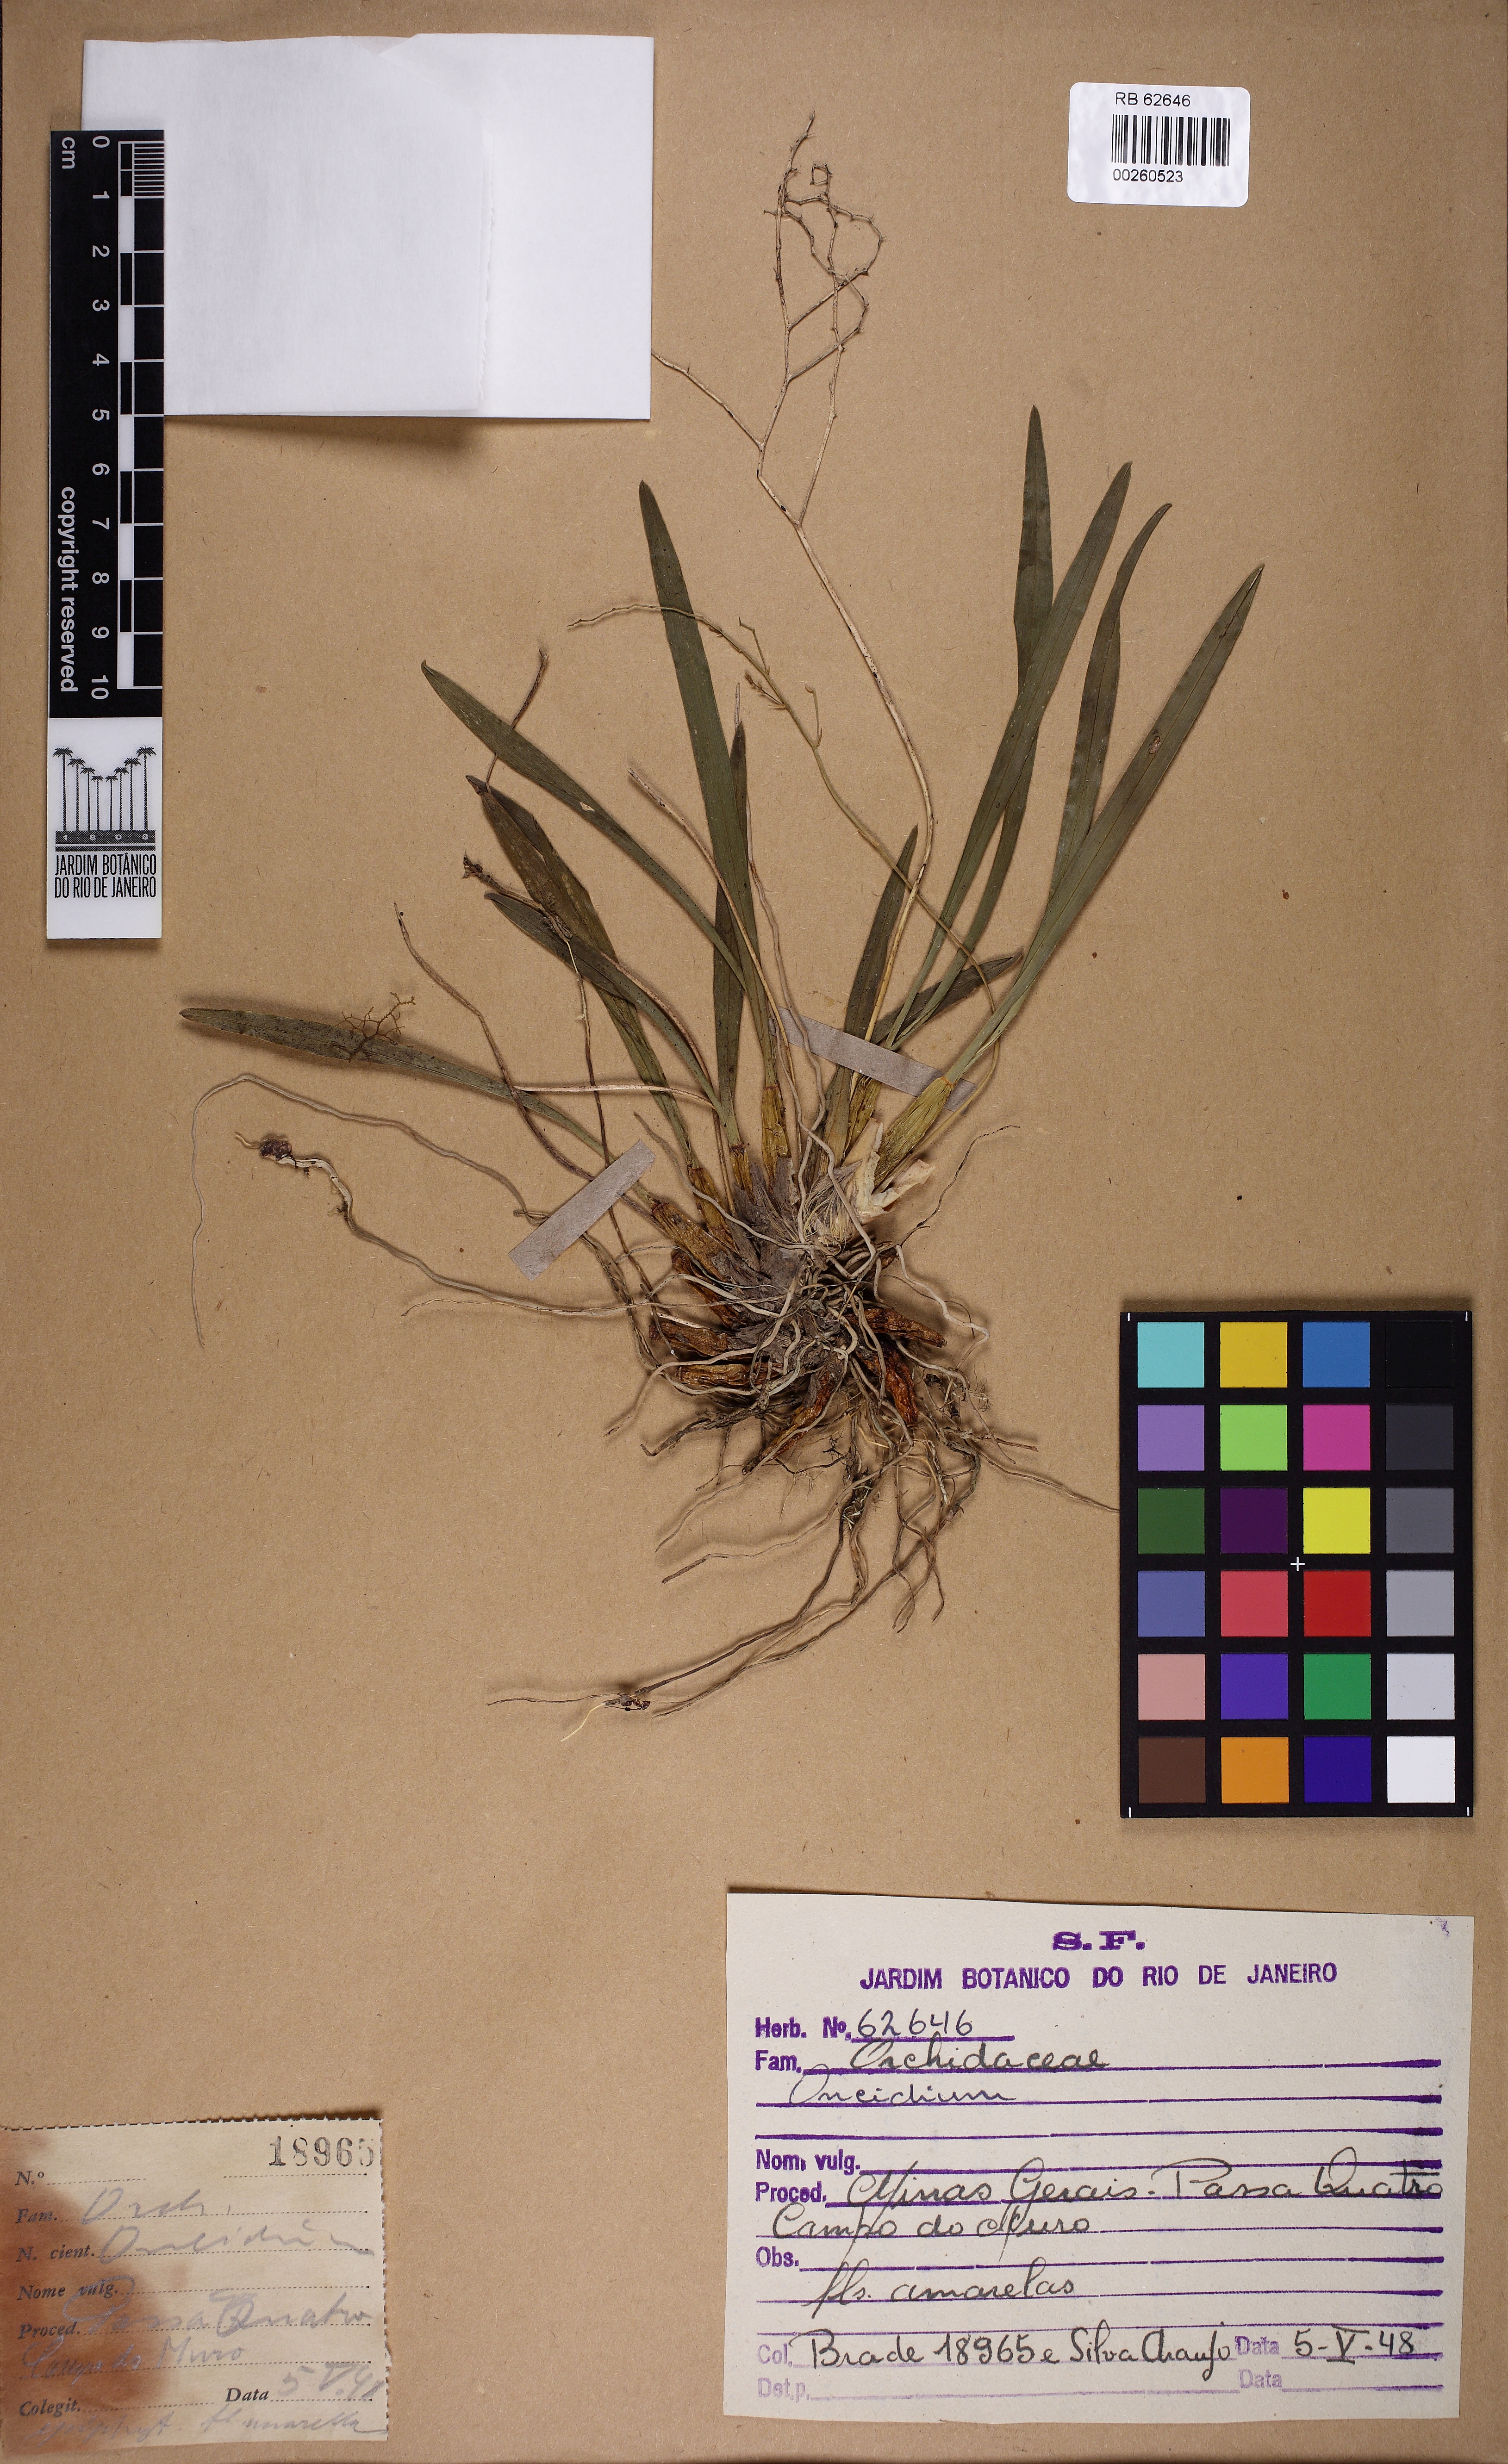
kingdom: Plantae
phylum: Tracheophyta
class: Liliopsida
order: Asparagales
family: Orchidaceae
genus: Gomesa
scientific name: Gomesa ranifera
